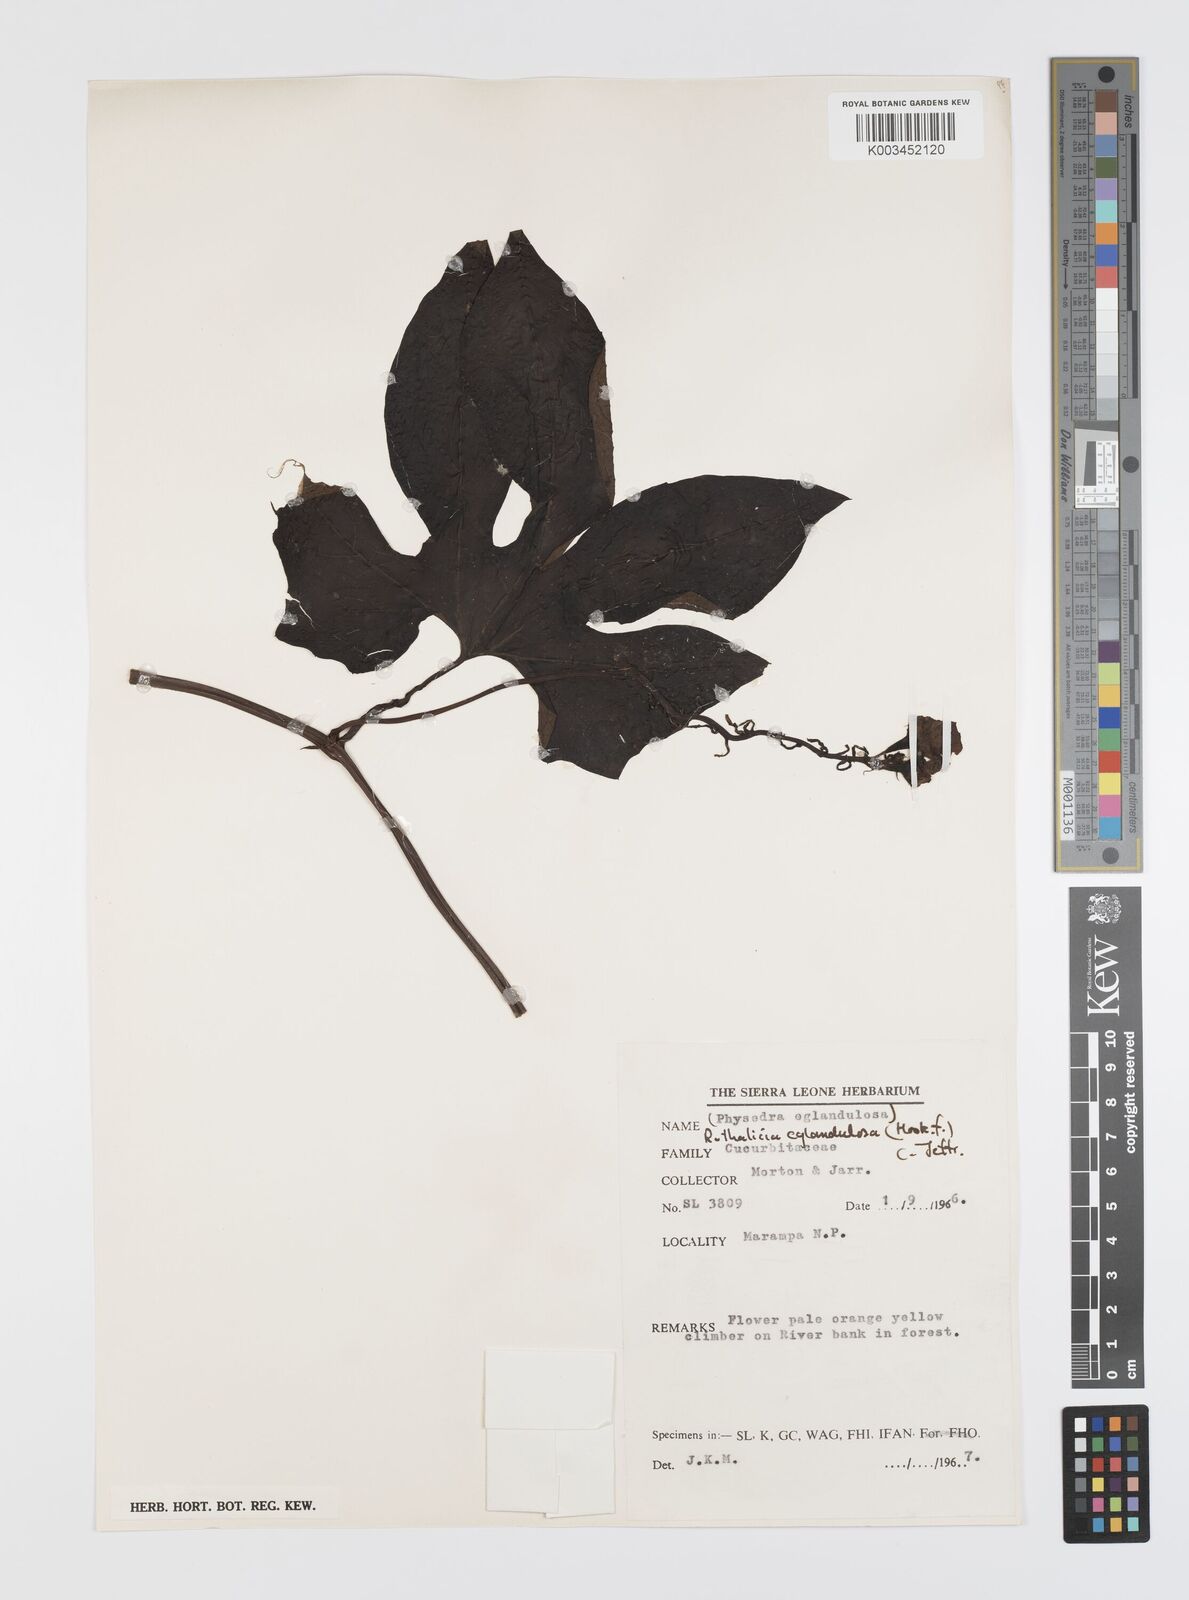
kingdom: Plantae
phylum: Tracheophyta
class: Magnoliopsida
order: Cucurbitales
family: Cucurbitaceae
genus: Ruthalicia
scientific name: Ruthalicia eglandulosa
